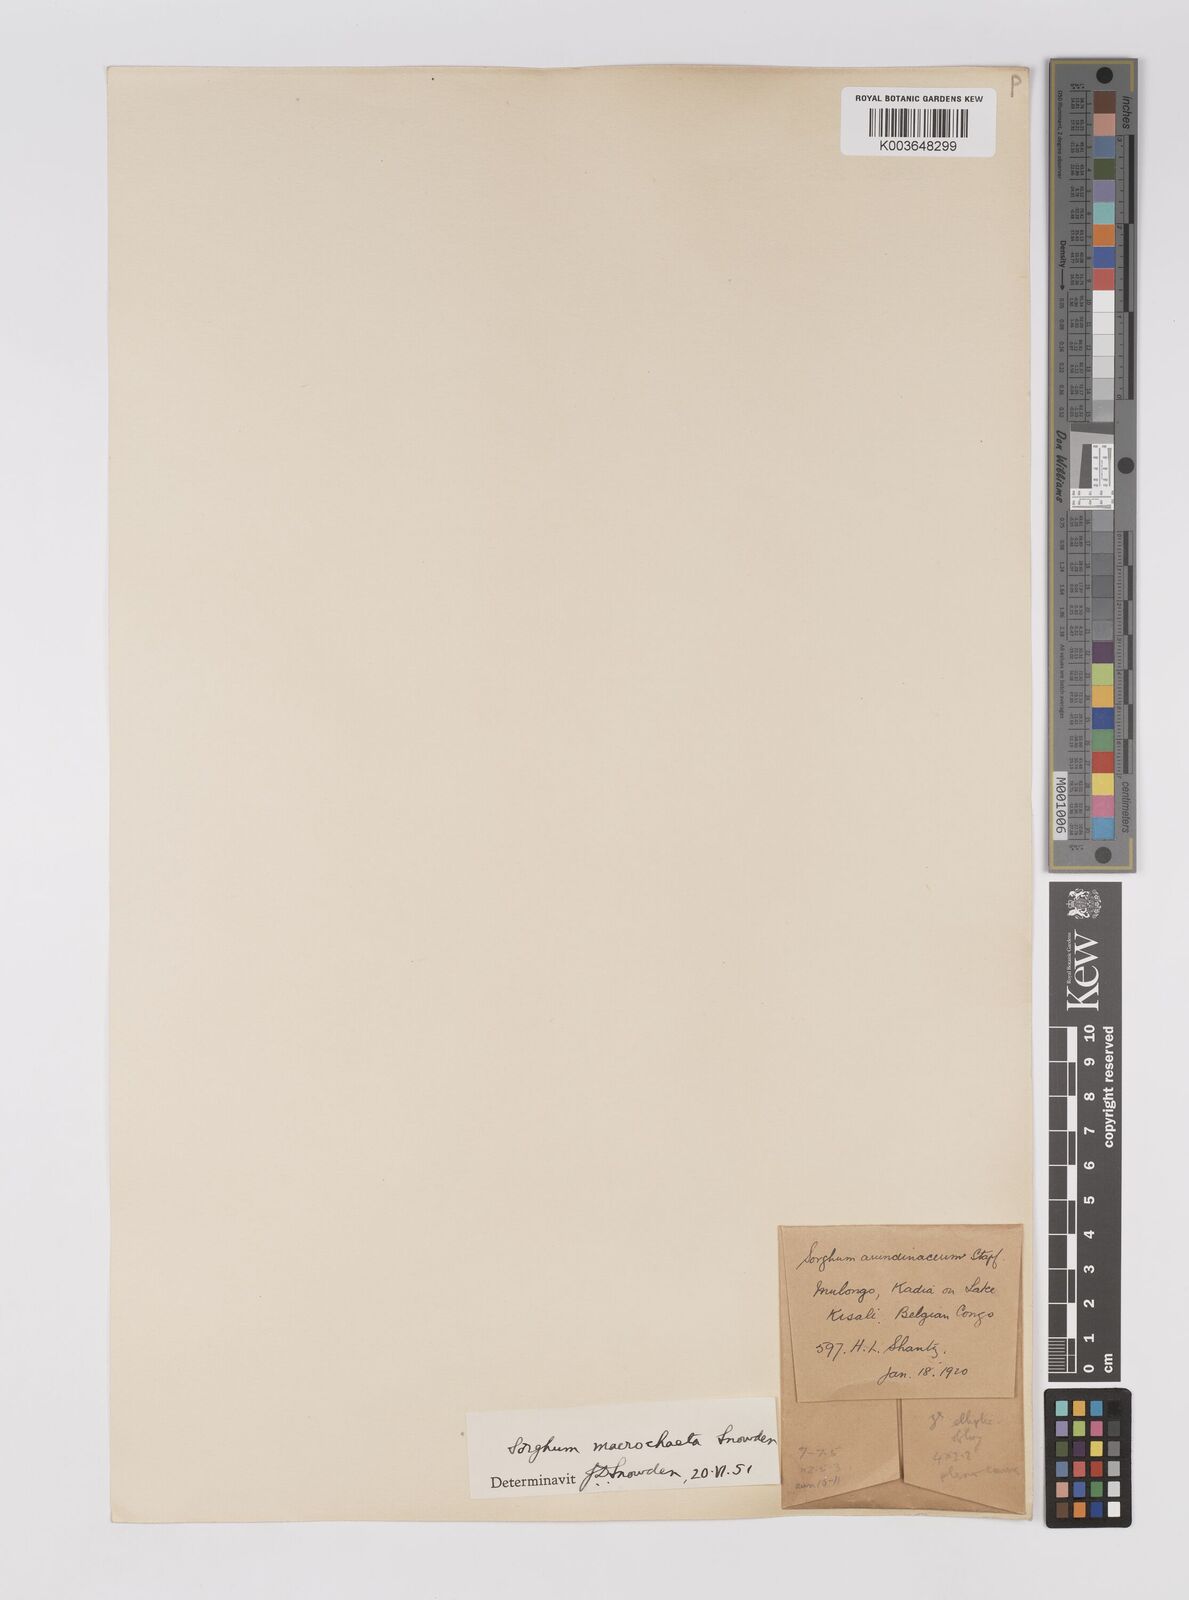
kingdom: Plantae
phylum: Tracheophyta
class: Liliopsida
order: Poales
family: Poaceae
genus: Sorghum
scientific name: Sorghum arundinaceum
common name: Sorghum
